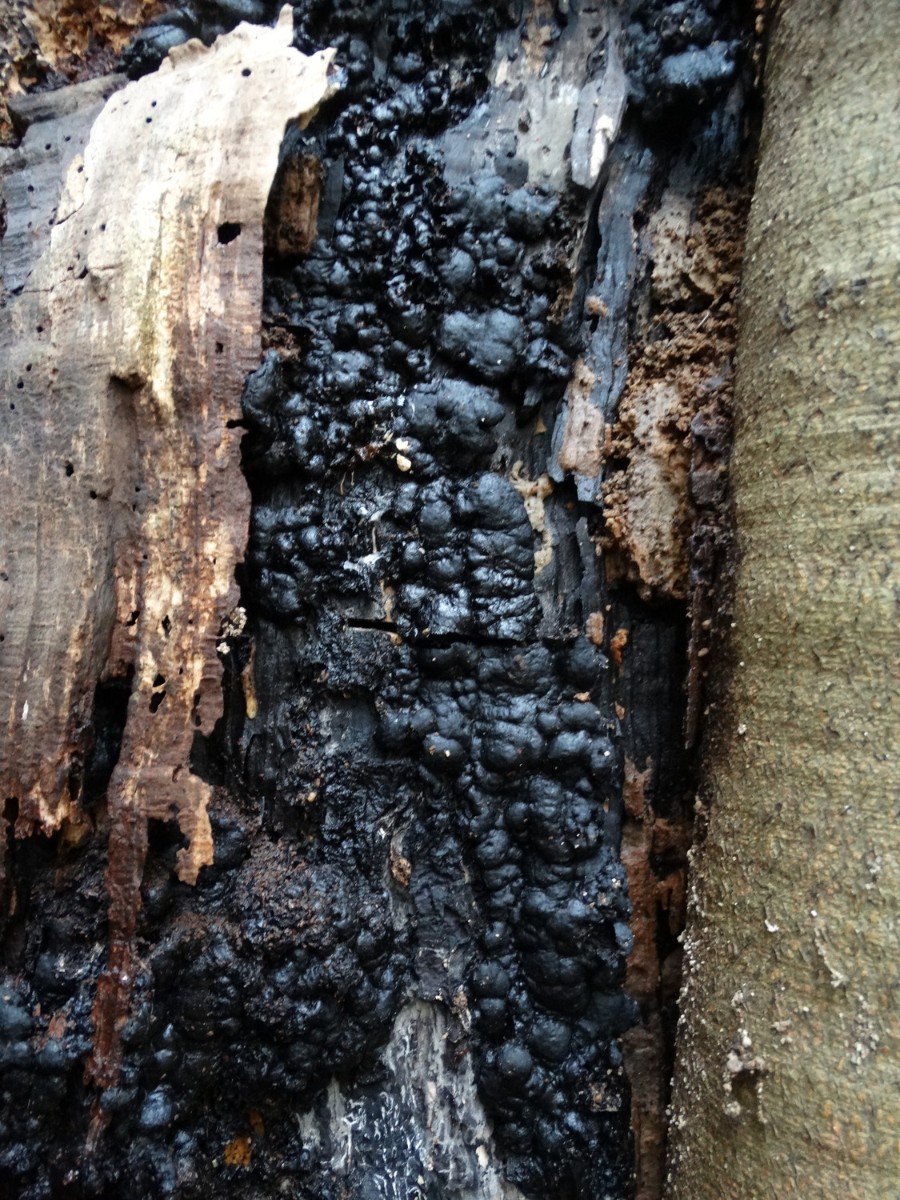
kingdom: Fungi
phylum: Ascomycota
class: Sordariomycetes
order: Xylariales
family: Xylariaceae
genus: Kretzschmaria
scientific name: Kretzschmaria deusta
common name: stor kulsvamp
